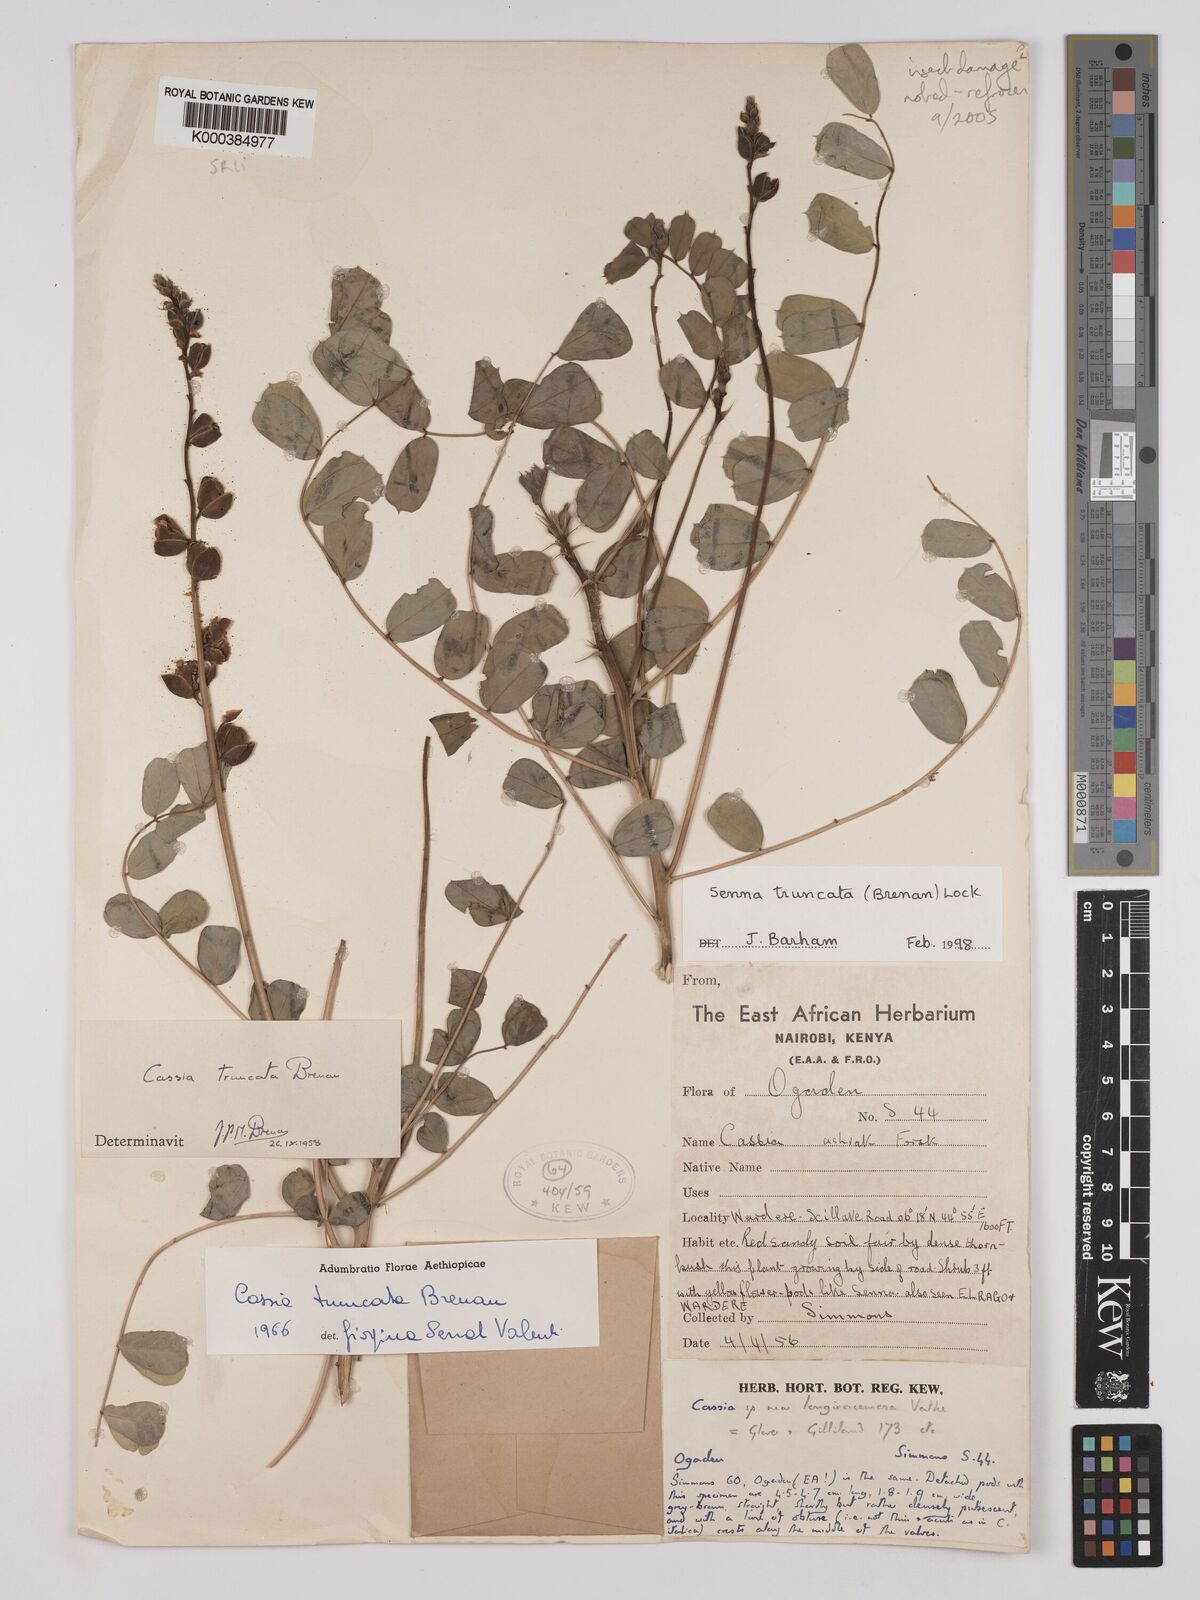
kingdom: Plantae
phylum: Tracheophyta
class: Magnoliopsida
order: Fabales
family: Fabaceae
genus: Senna
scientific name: Senna truncata
